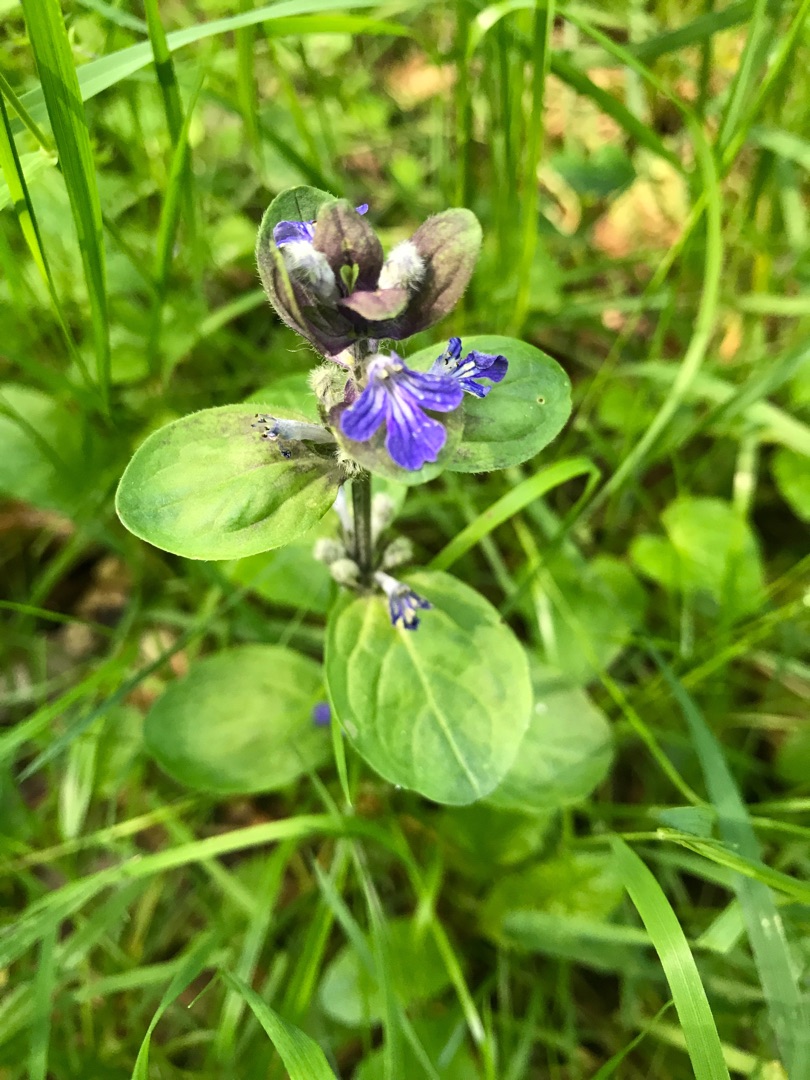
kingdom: Plantae
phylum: Tracheophyta
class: Magnoliopsida
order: Lamiales
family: Lamiaceae
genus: Ajuga
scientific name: Ajuga reptans
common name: Krybende læbeløs
